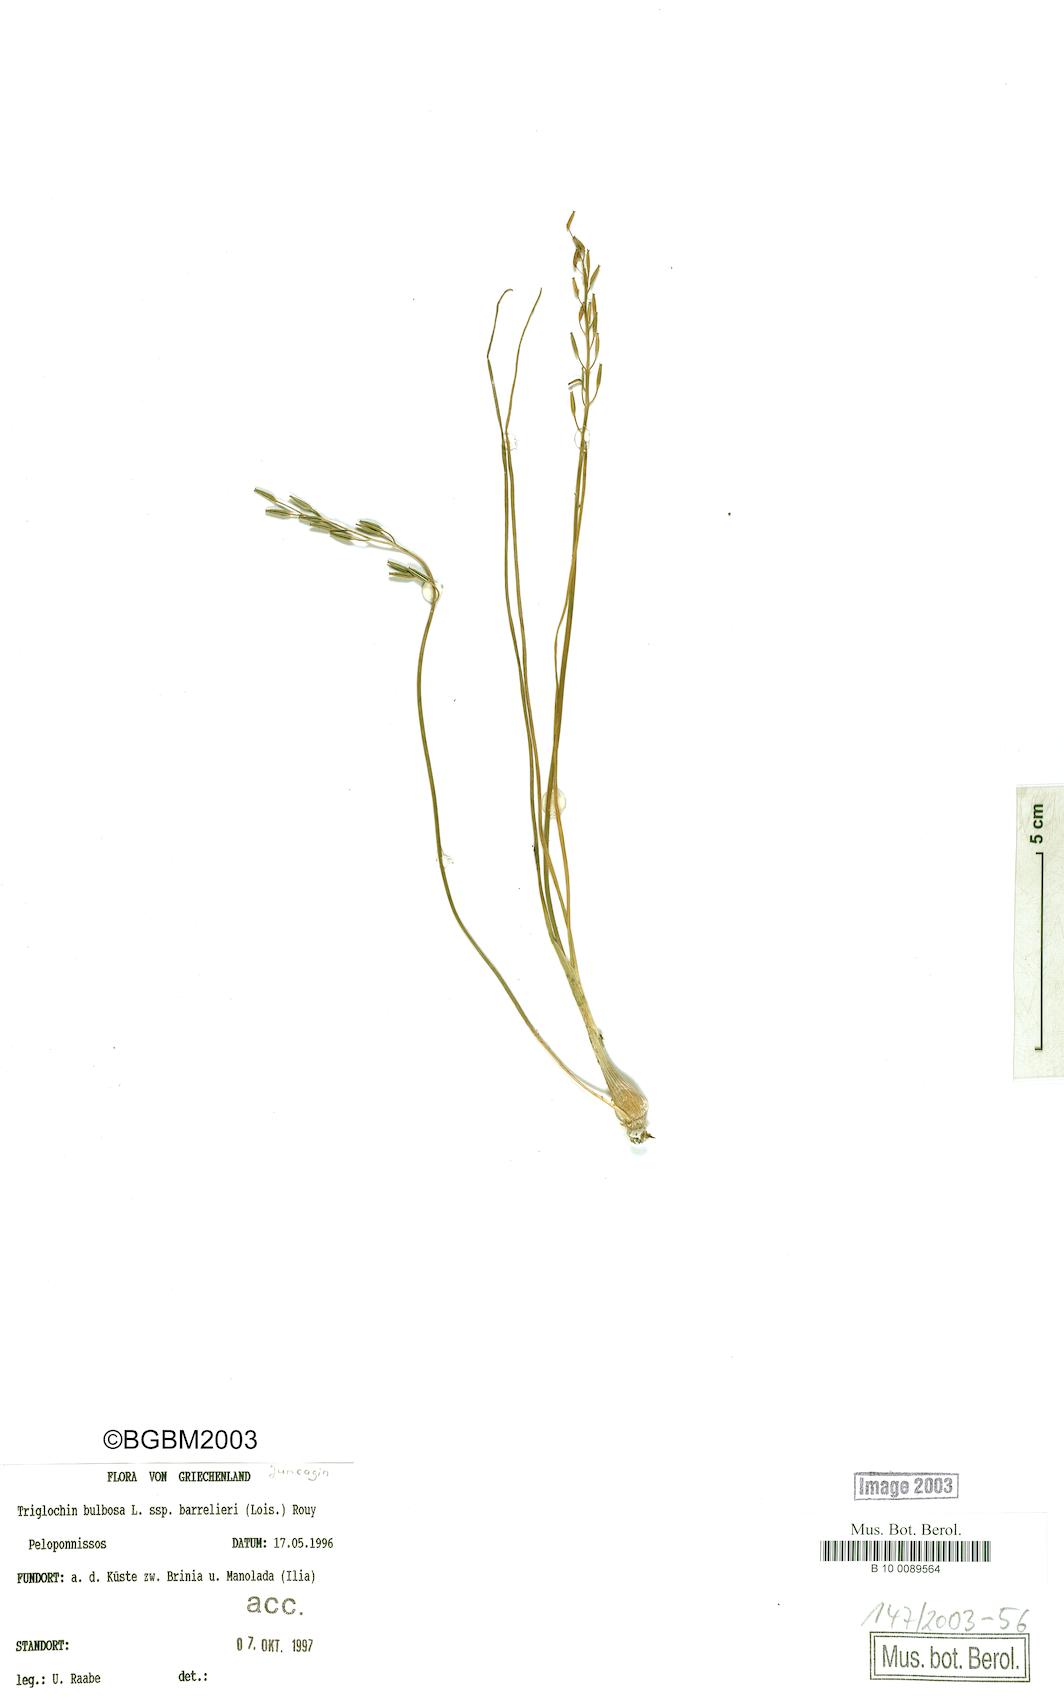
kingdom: Plantae
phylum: Tracheophyta
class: Liliopsida
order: Alismatales
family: Juncaginaceae
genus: Triglochin
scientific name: Triglochin bulbosa
